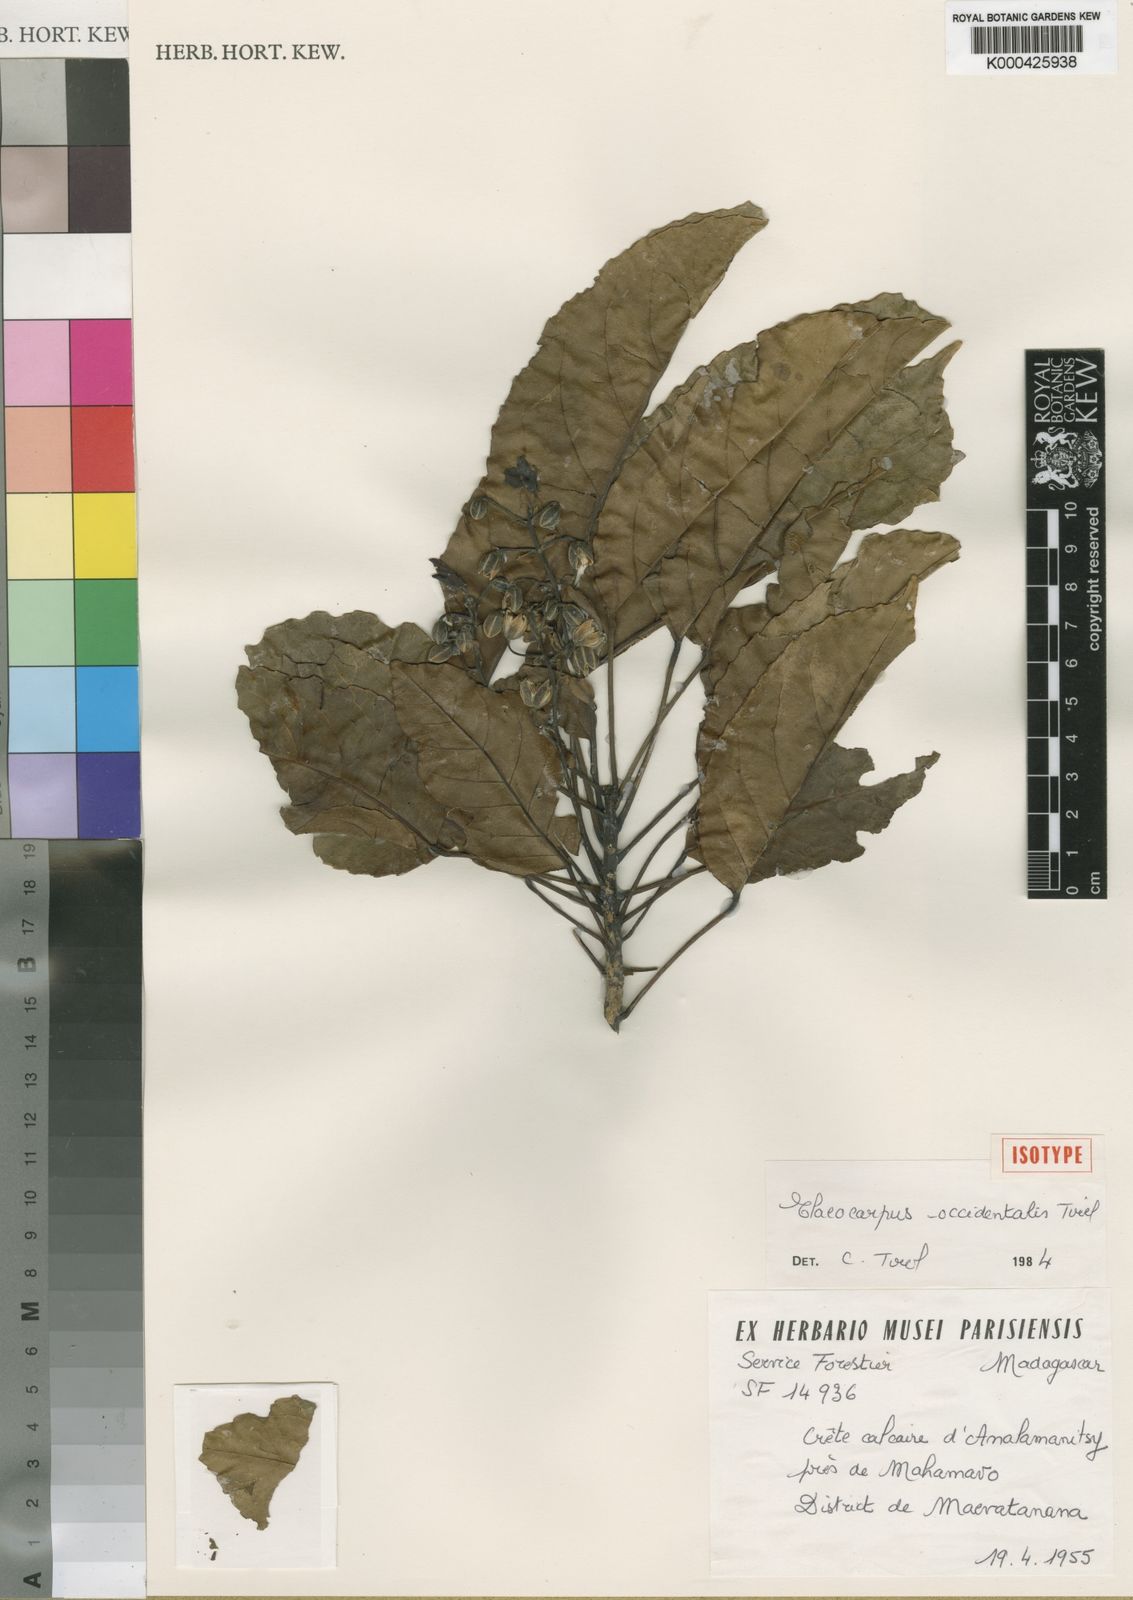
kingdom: Plantae
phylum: Tracheophyta
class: Magnoliopsida
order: Oxalidales
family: Elaeocarpaceae
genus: Elaeocarpus
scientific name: Elaeocarpus occidentalis
